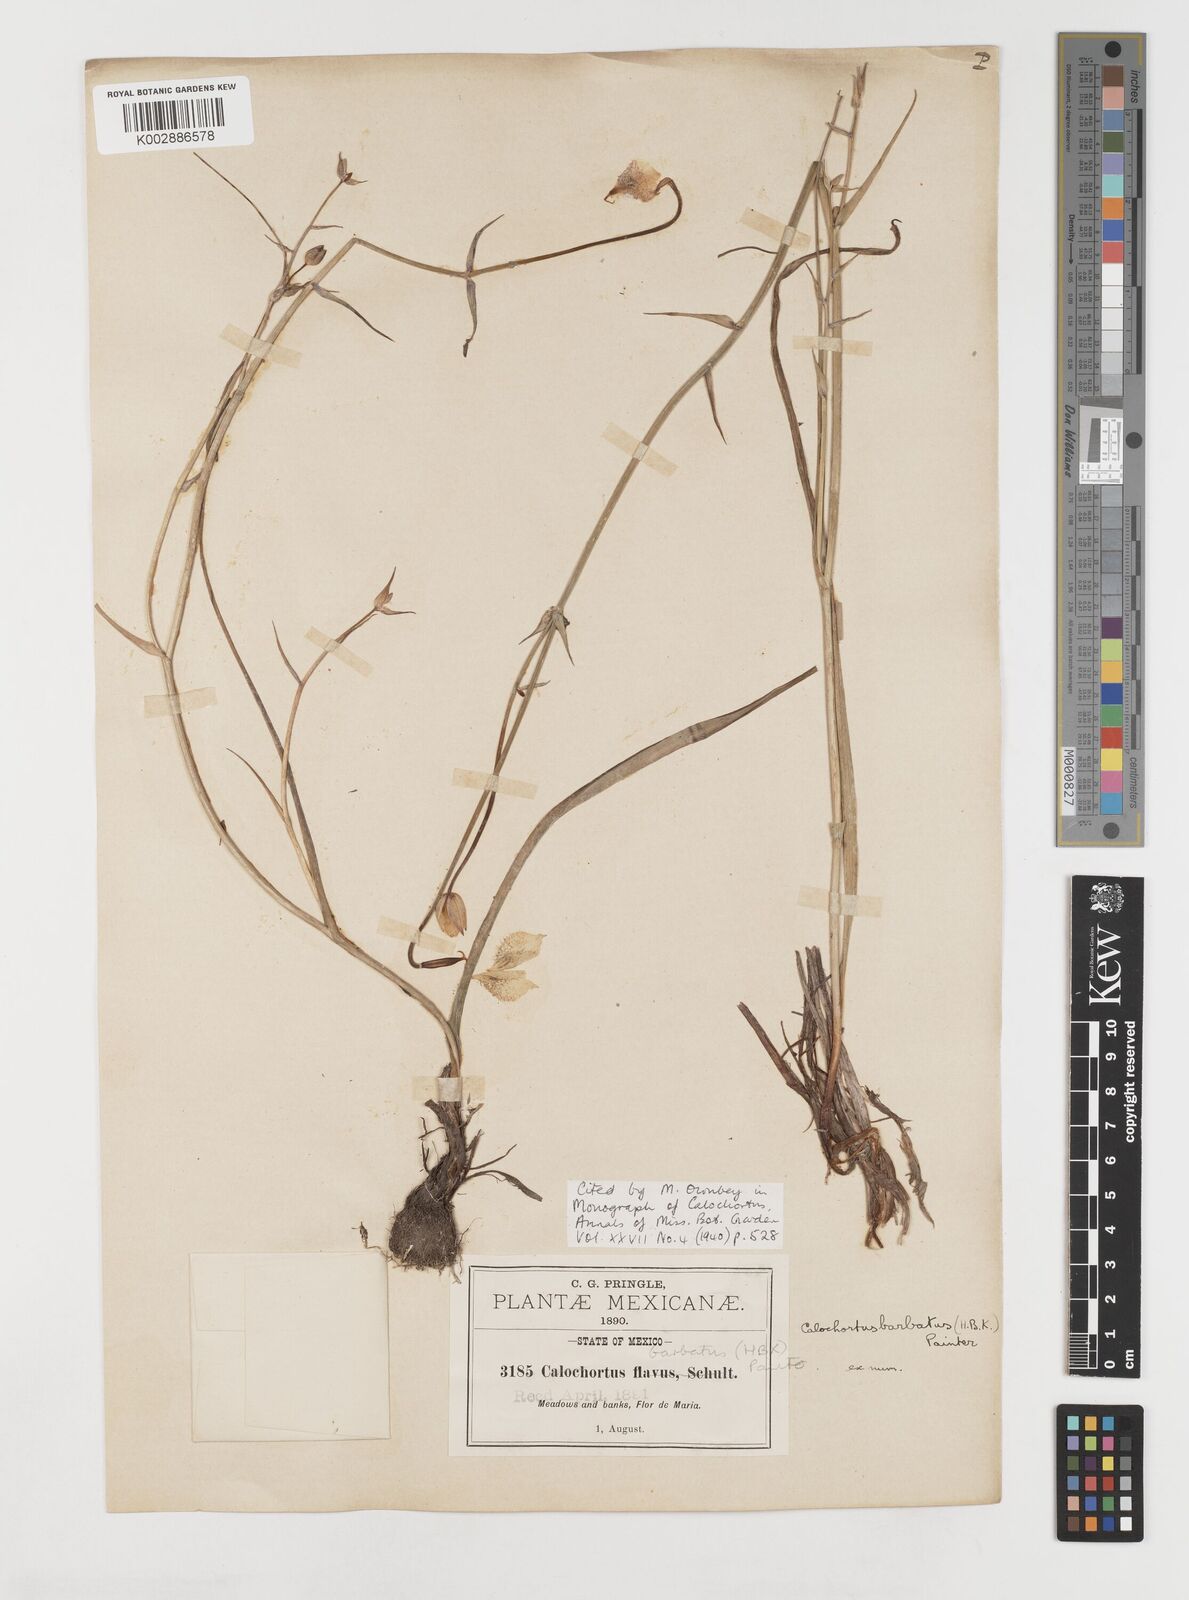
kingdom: Plantae
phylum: Tracheophyta
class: Liliopsida
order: Liliales
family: Liliaceae
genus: Calochortus
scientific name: Calochortus barbatus
